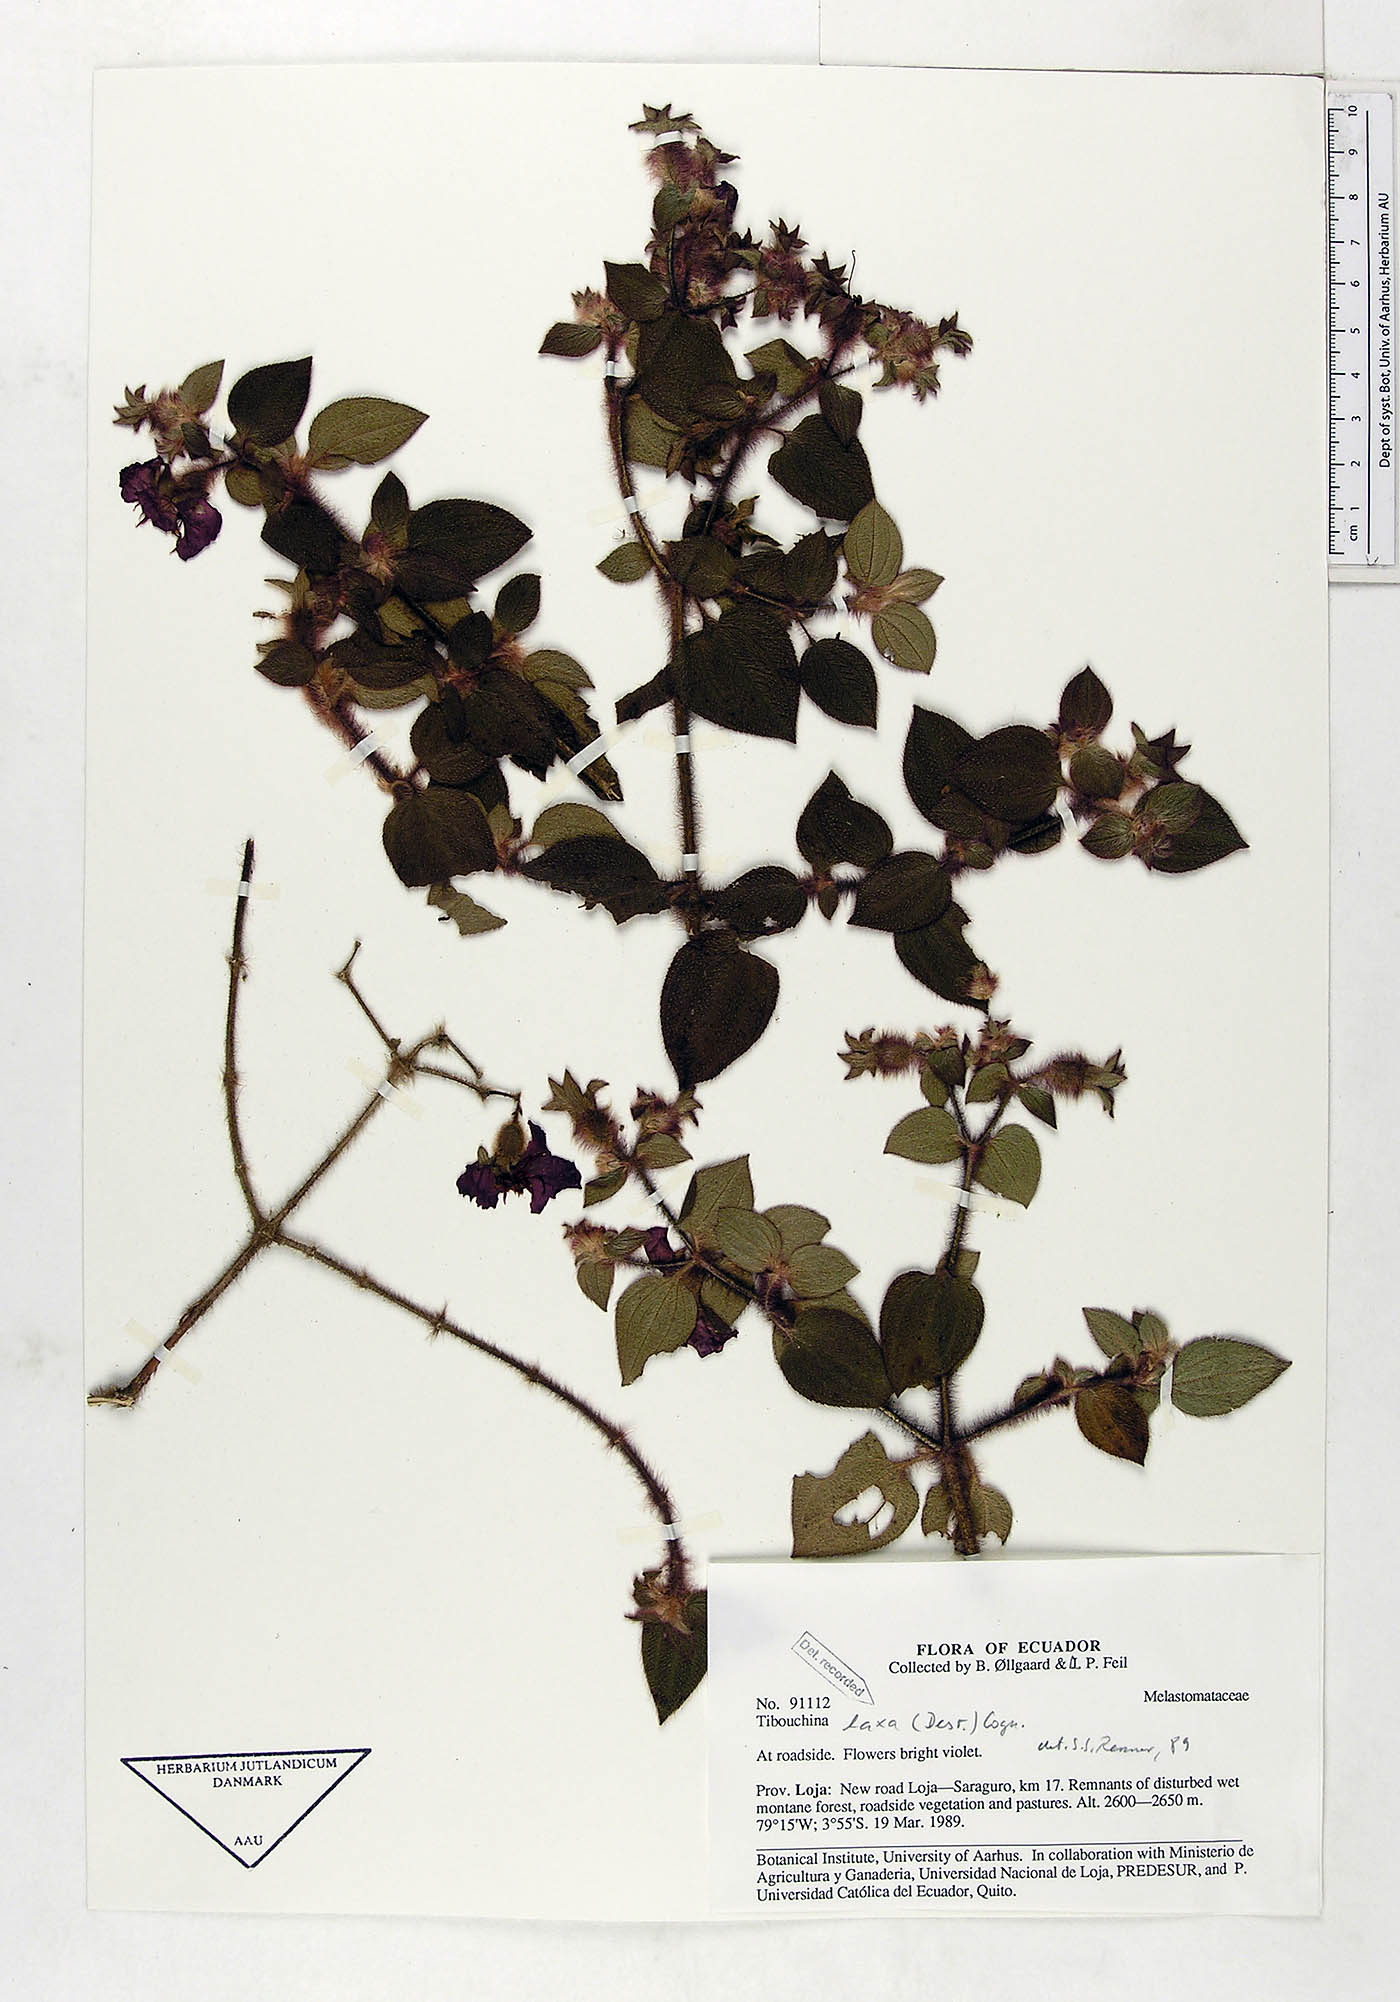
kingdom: Plantae
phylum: Tracheophyta
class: Magnoliopsida
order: Myrtales
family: Melastomataceae
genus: Chaetogastra
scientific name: Chaetogastra laxa
